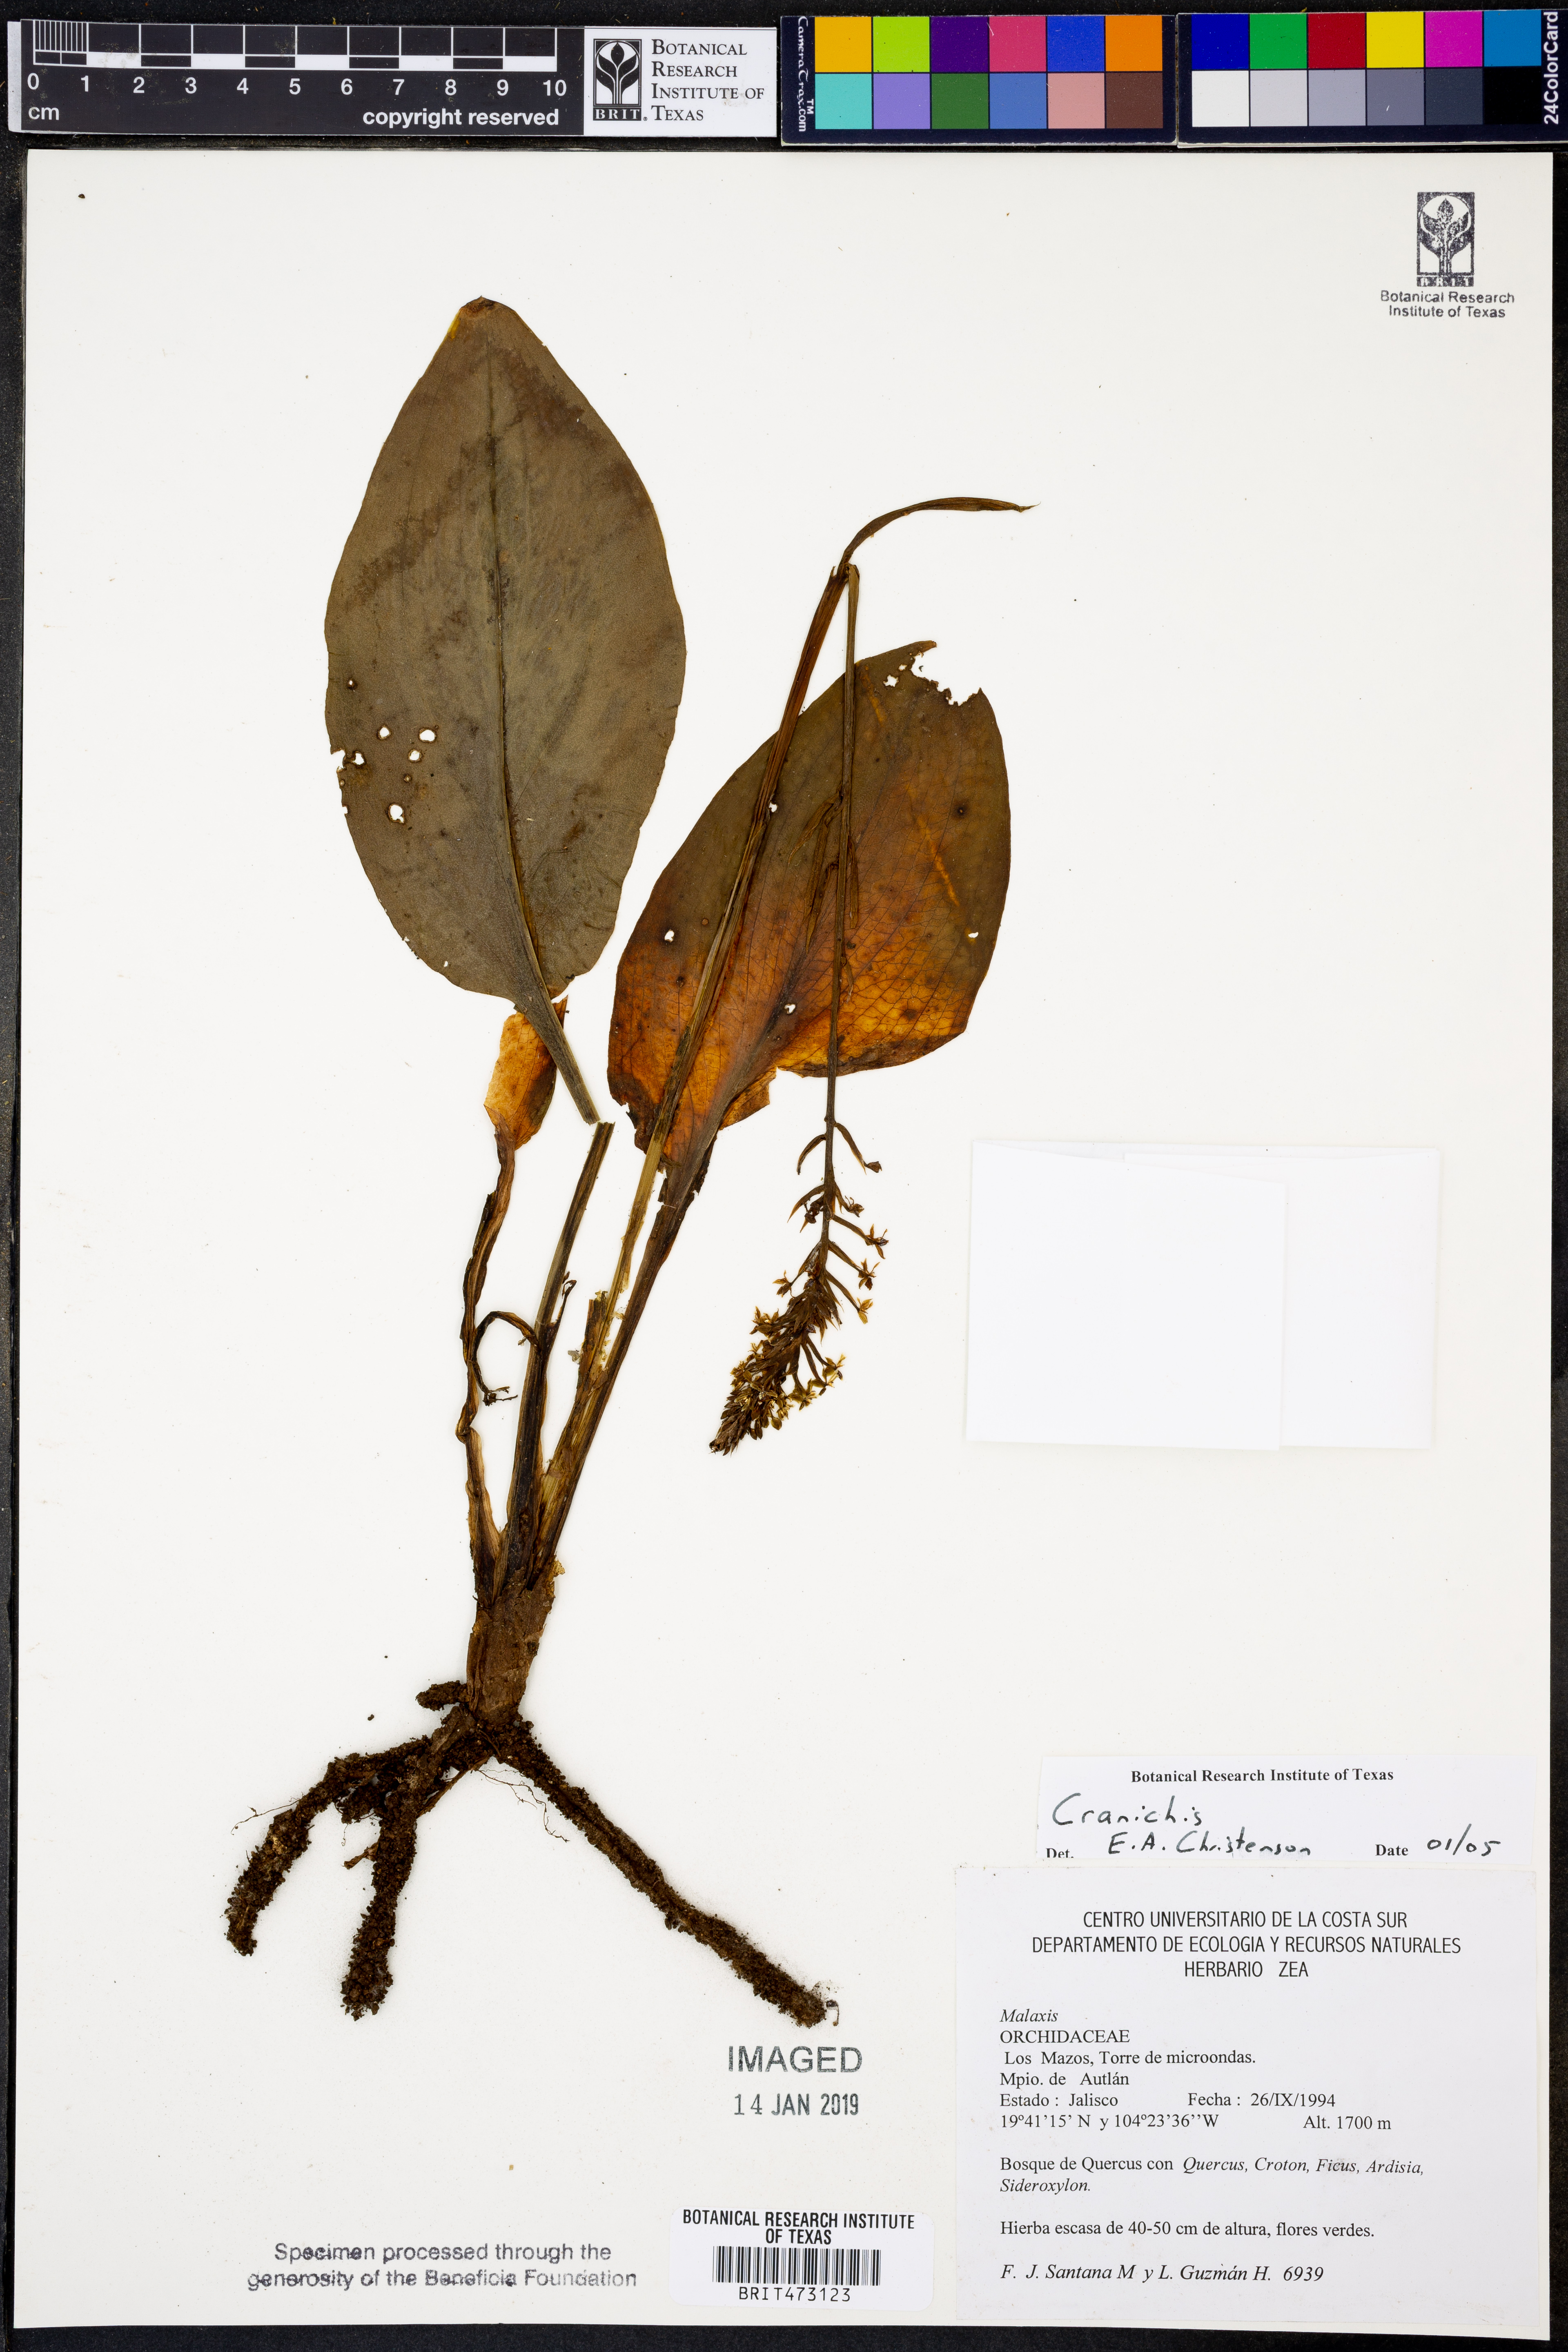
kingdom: Plantae
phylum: Tracheophyta
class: Liliopsida
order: Asparagales
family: Orchidaceae
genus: Cranichis
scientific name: Cranichis
